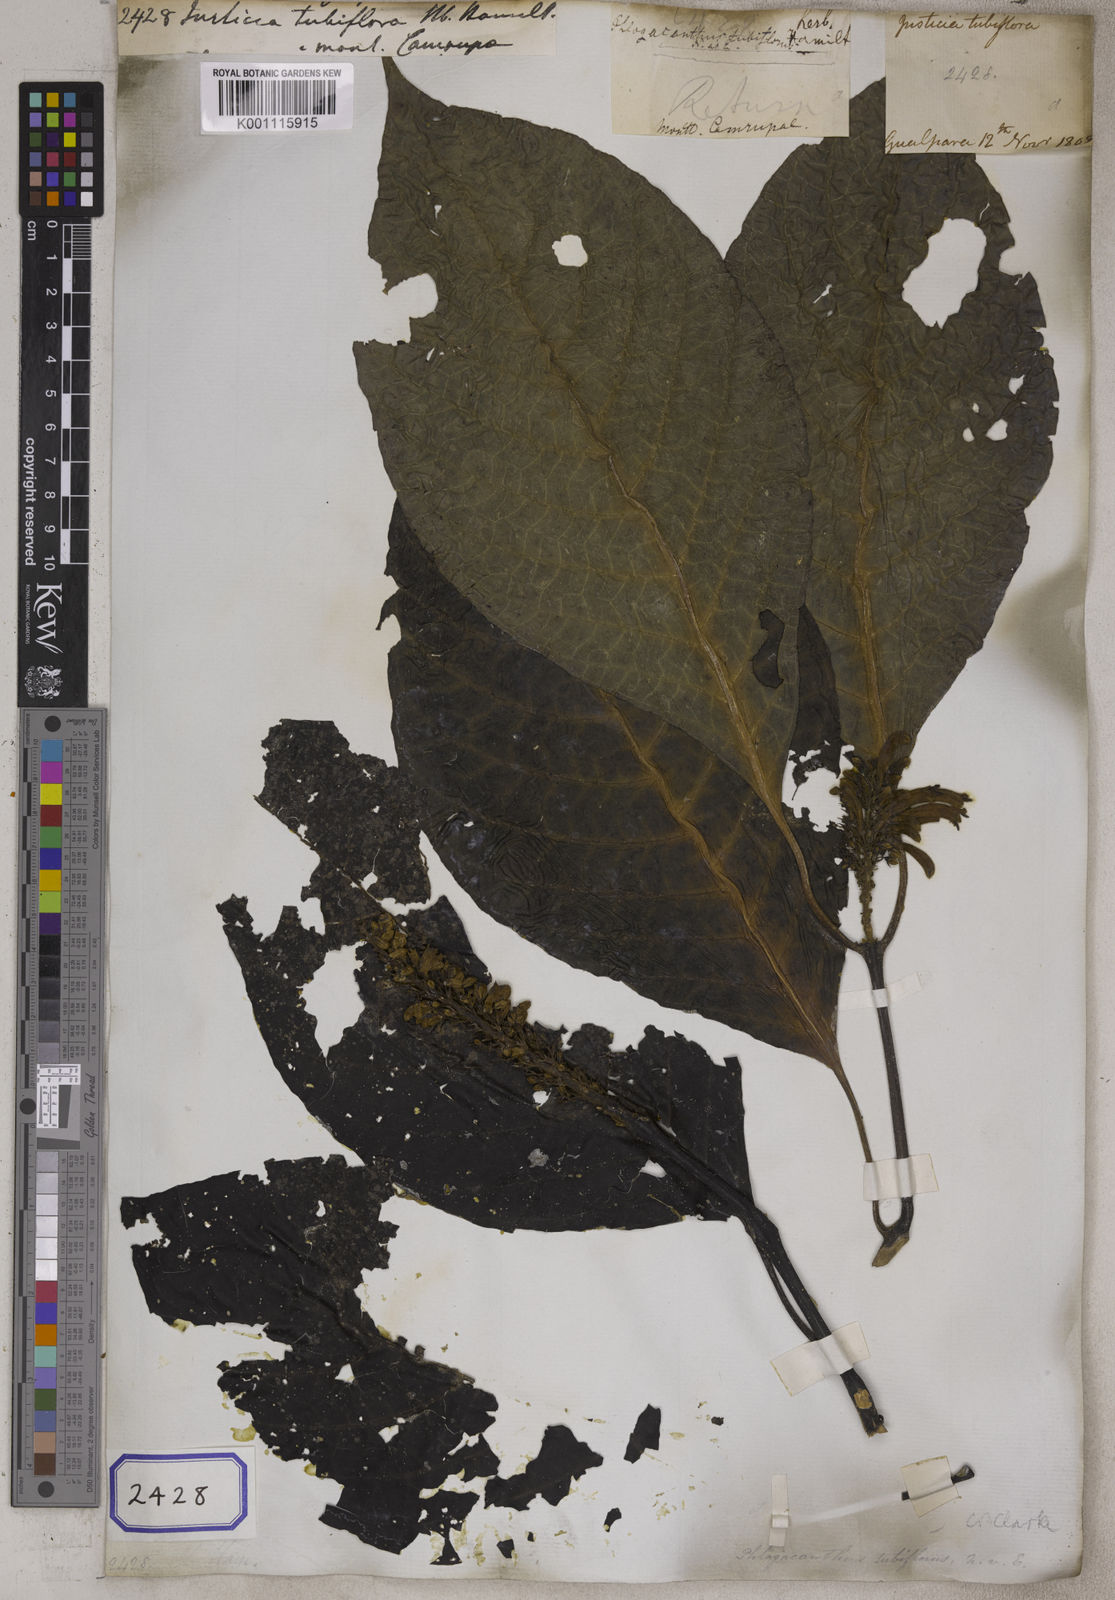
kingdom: Plantae
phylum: Tracheophyta
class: Magnoliopsida
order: Lamiales
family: Acanthaceae
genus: Phlogacanthus
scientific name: Phlogacanthus tubiflorus
